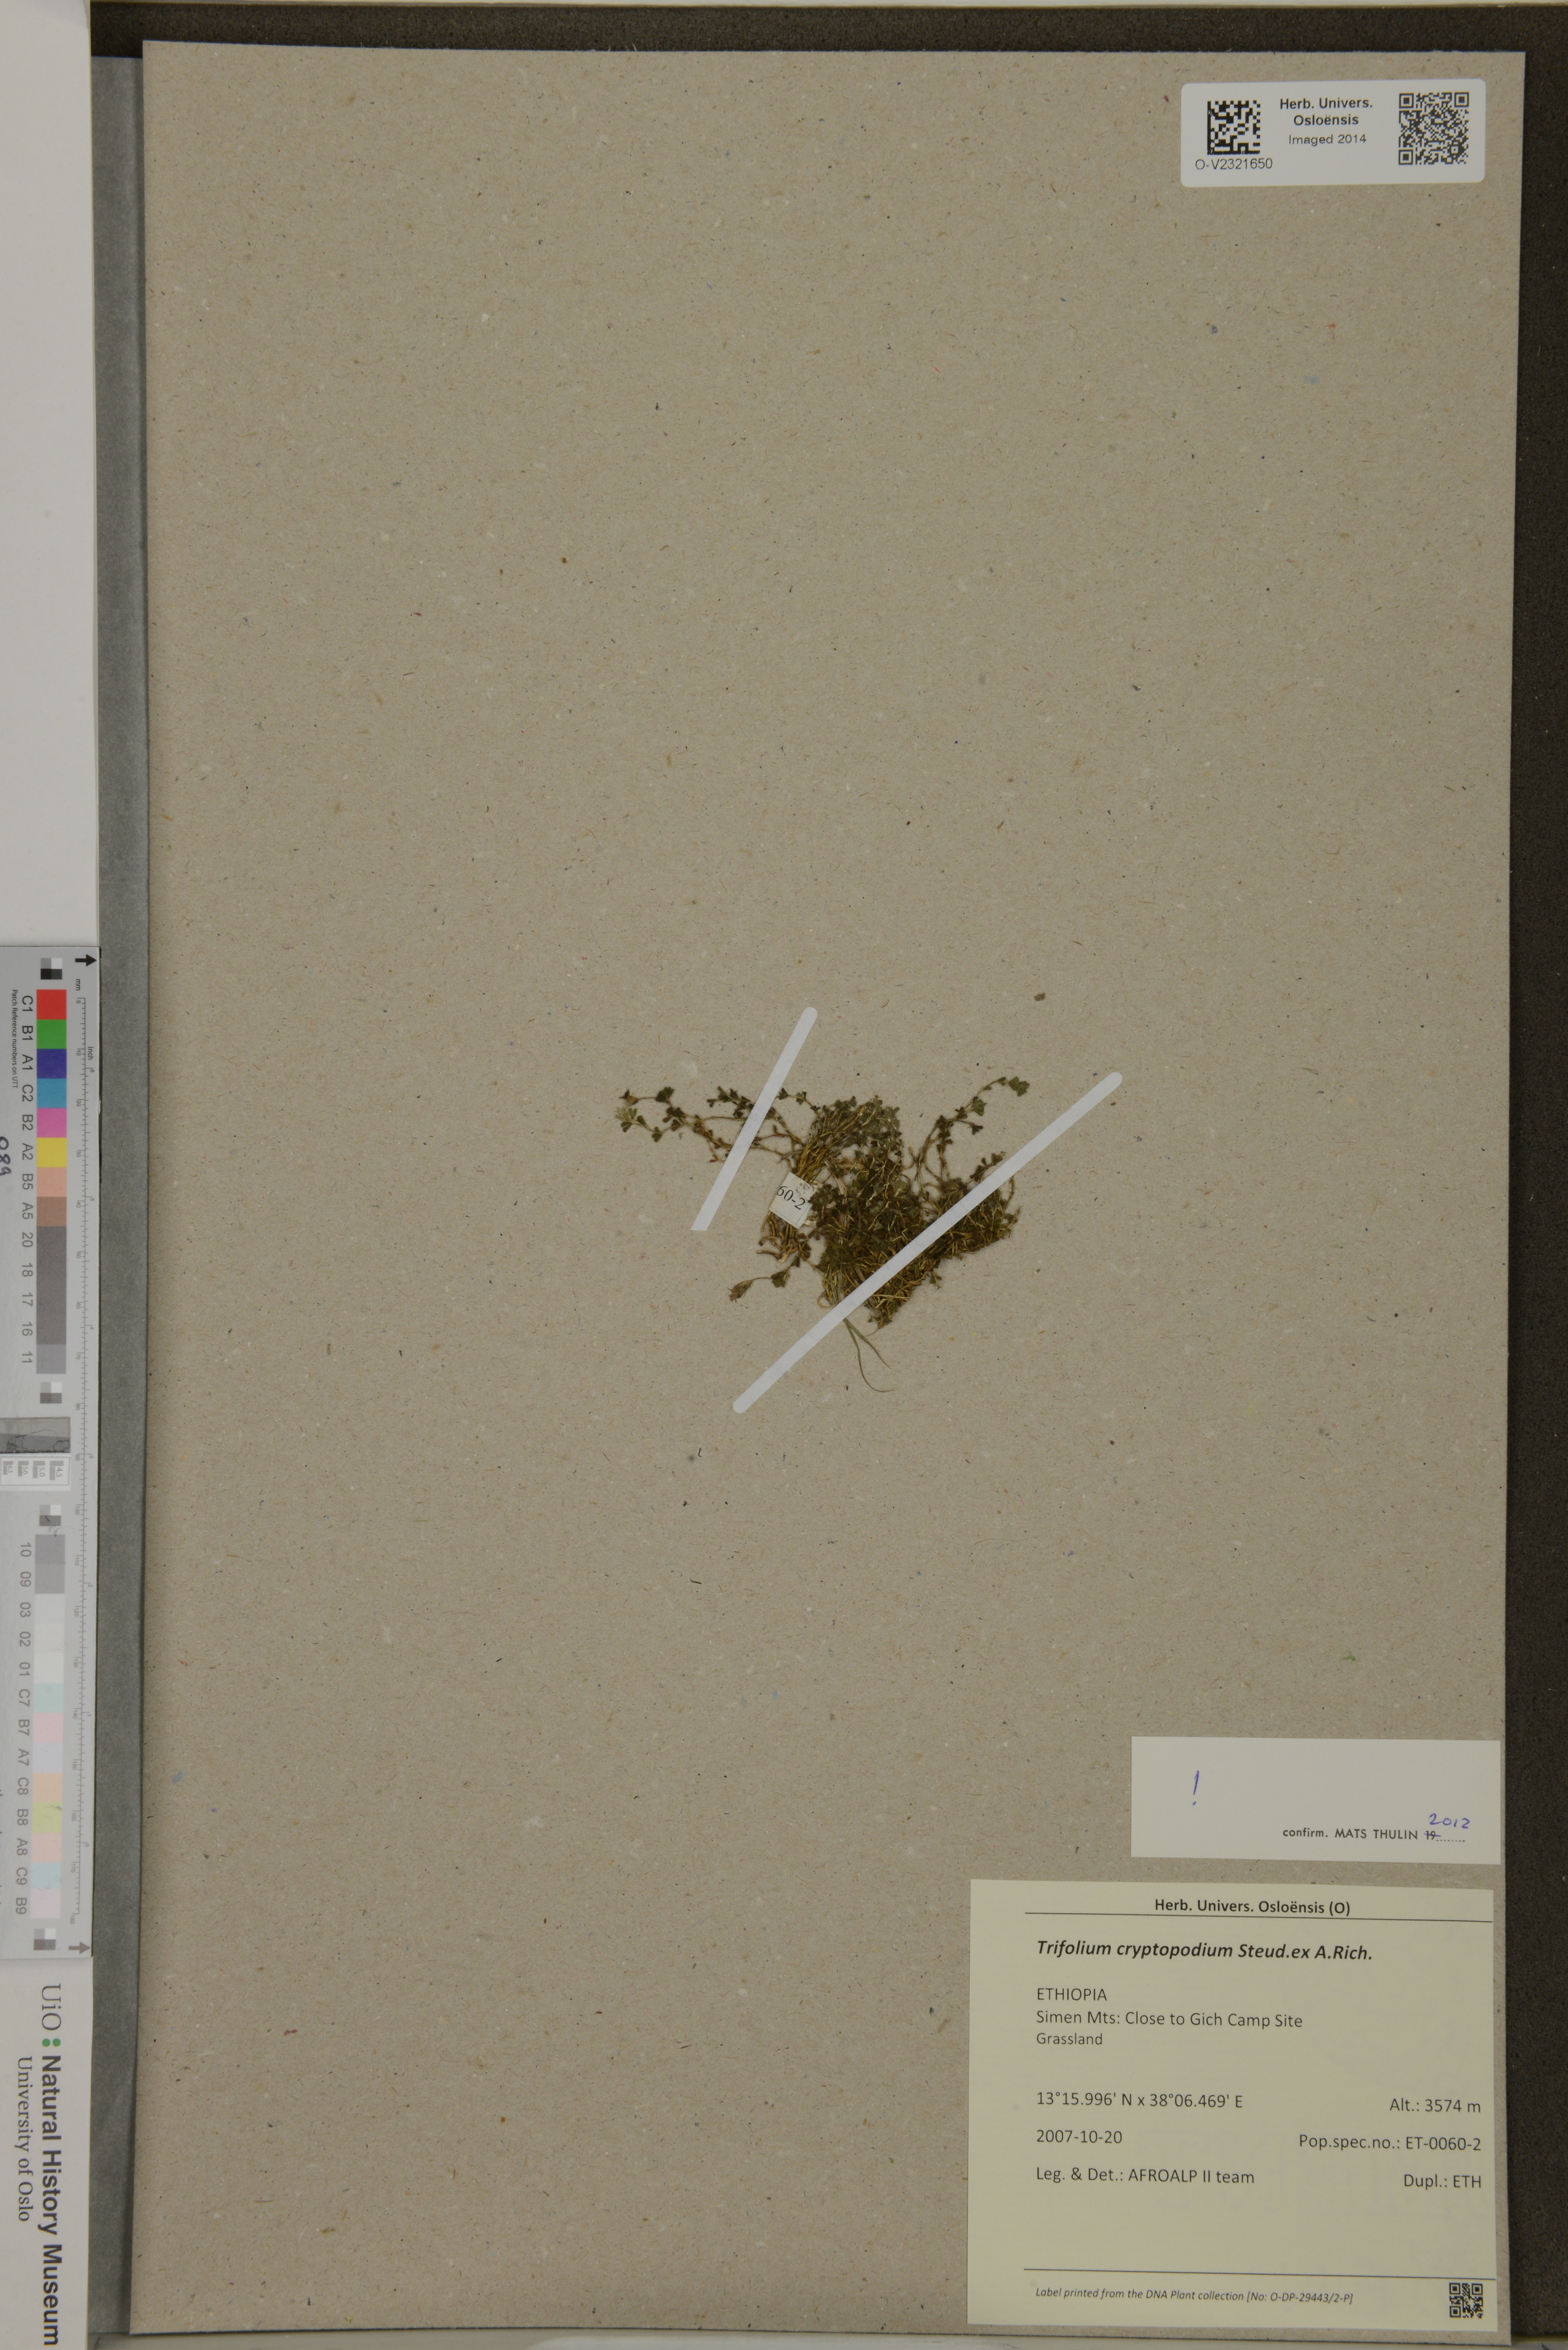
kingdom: Plantae
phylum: Tracheophyta
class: Magnoliopsida
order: Fabales
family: Fabaceae
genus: Trifolium
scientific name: Trifolium cryptopodium
